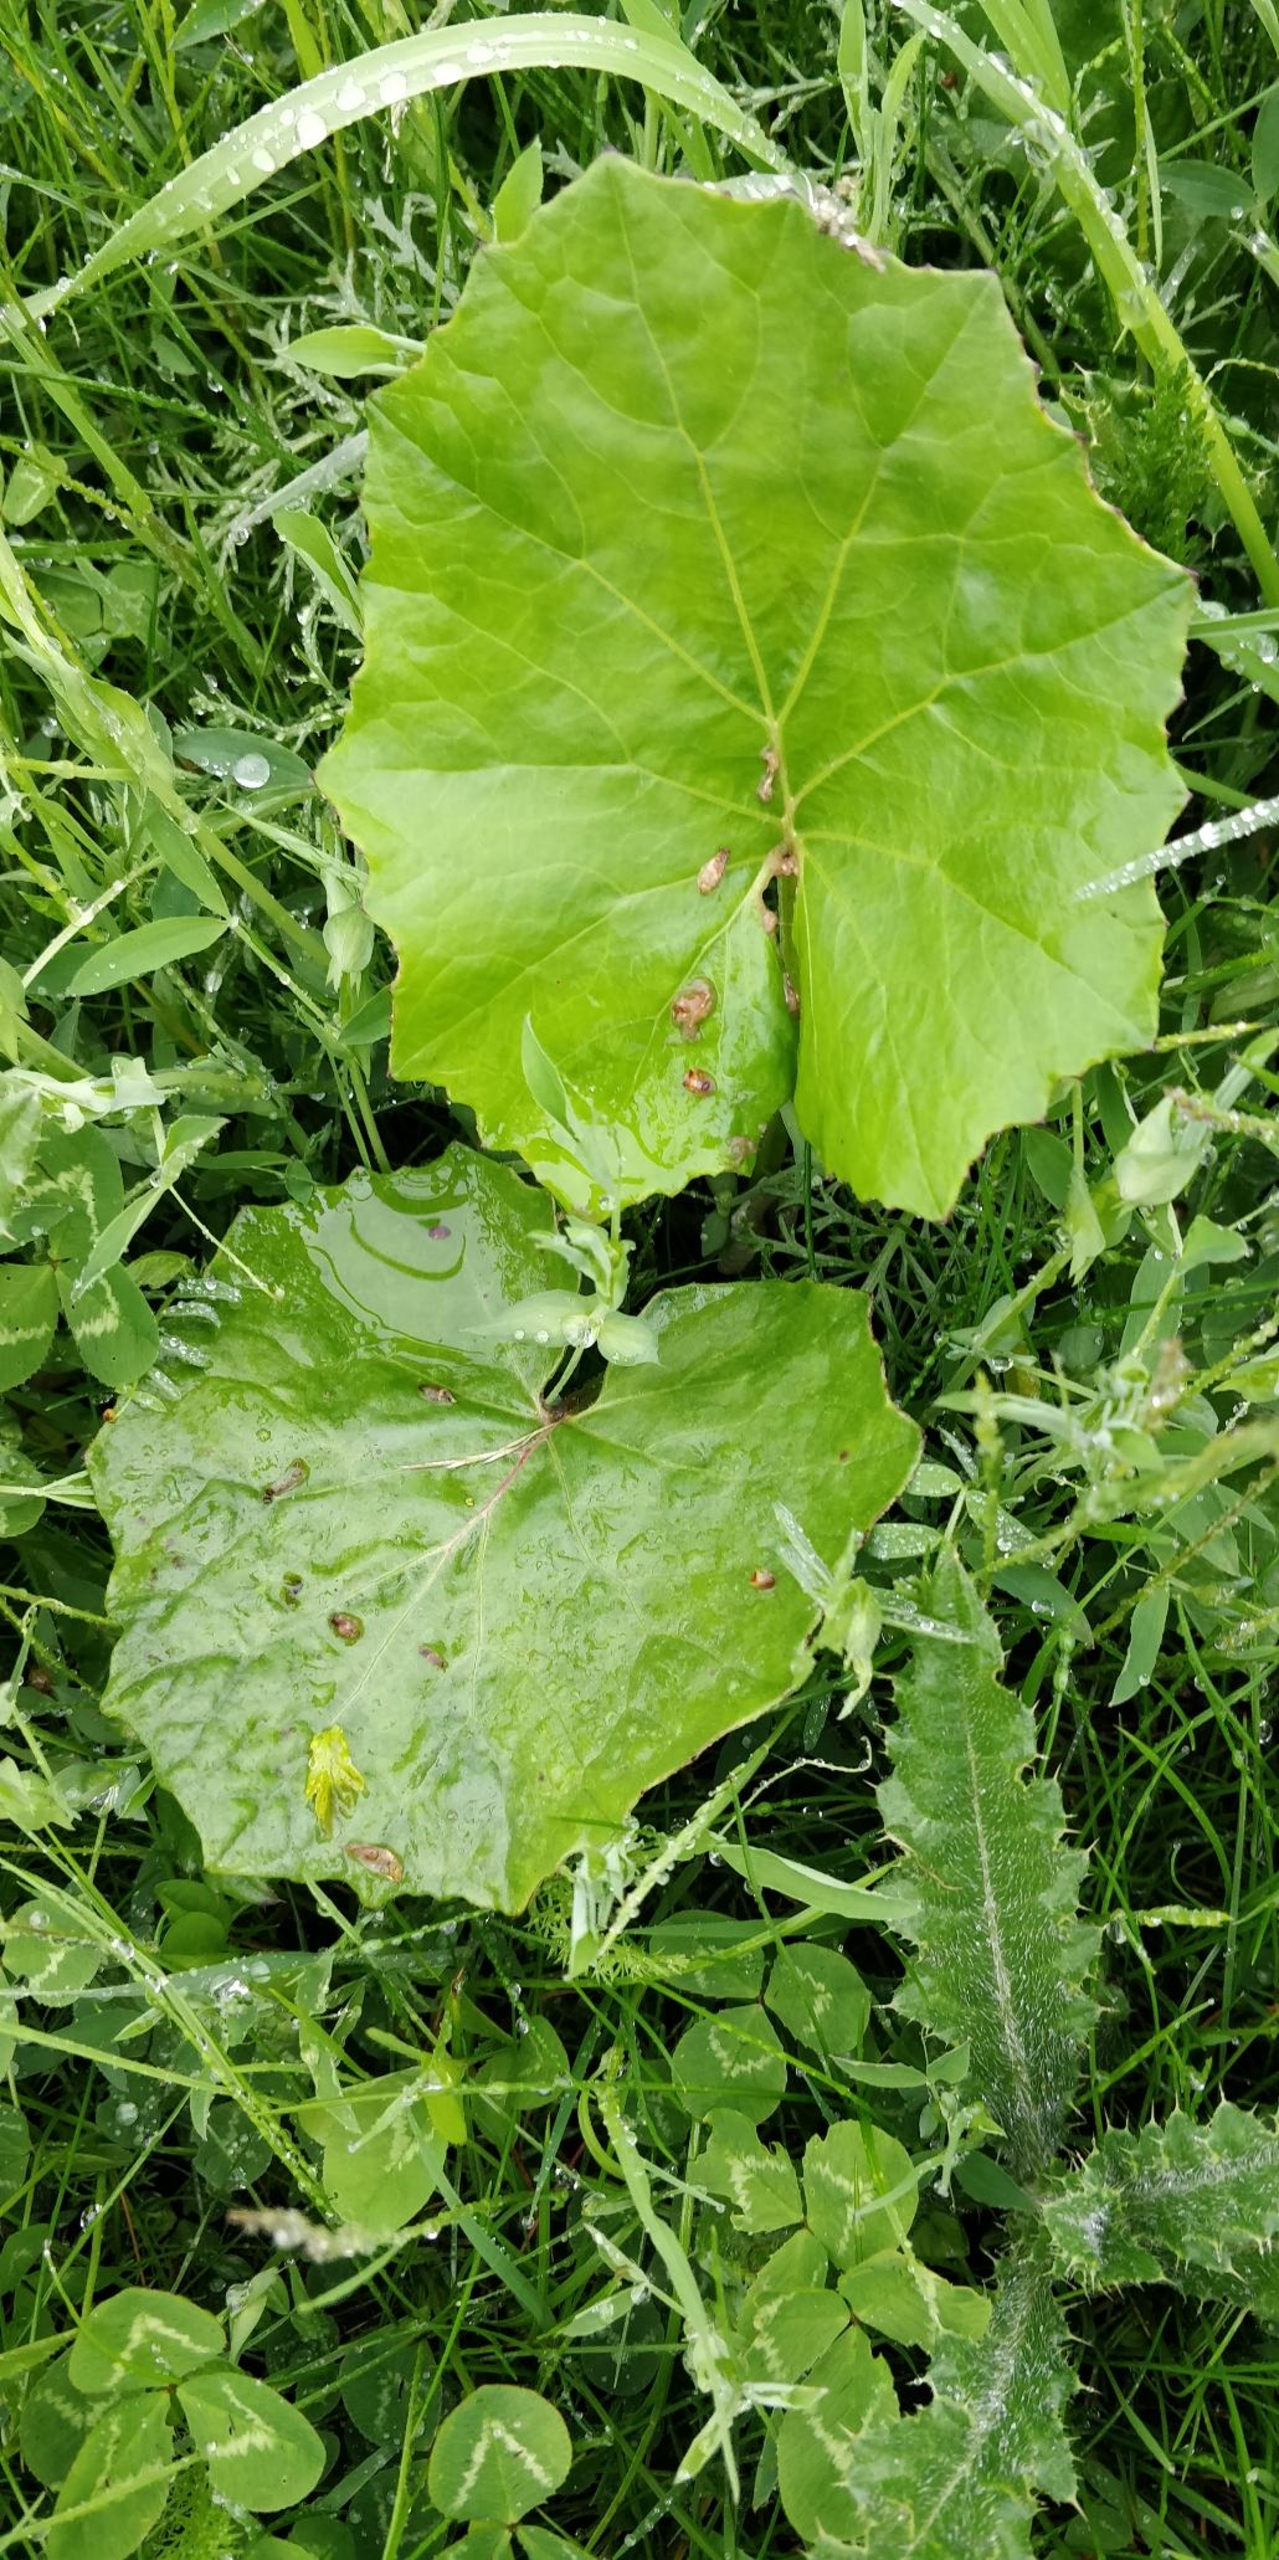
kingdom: Plantae
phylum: Tracheophyta
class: Magnoliopsida
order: Asterales
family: Asteraceae
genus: Tussilago
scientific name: Tussilago farfara
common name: Følfod
